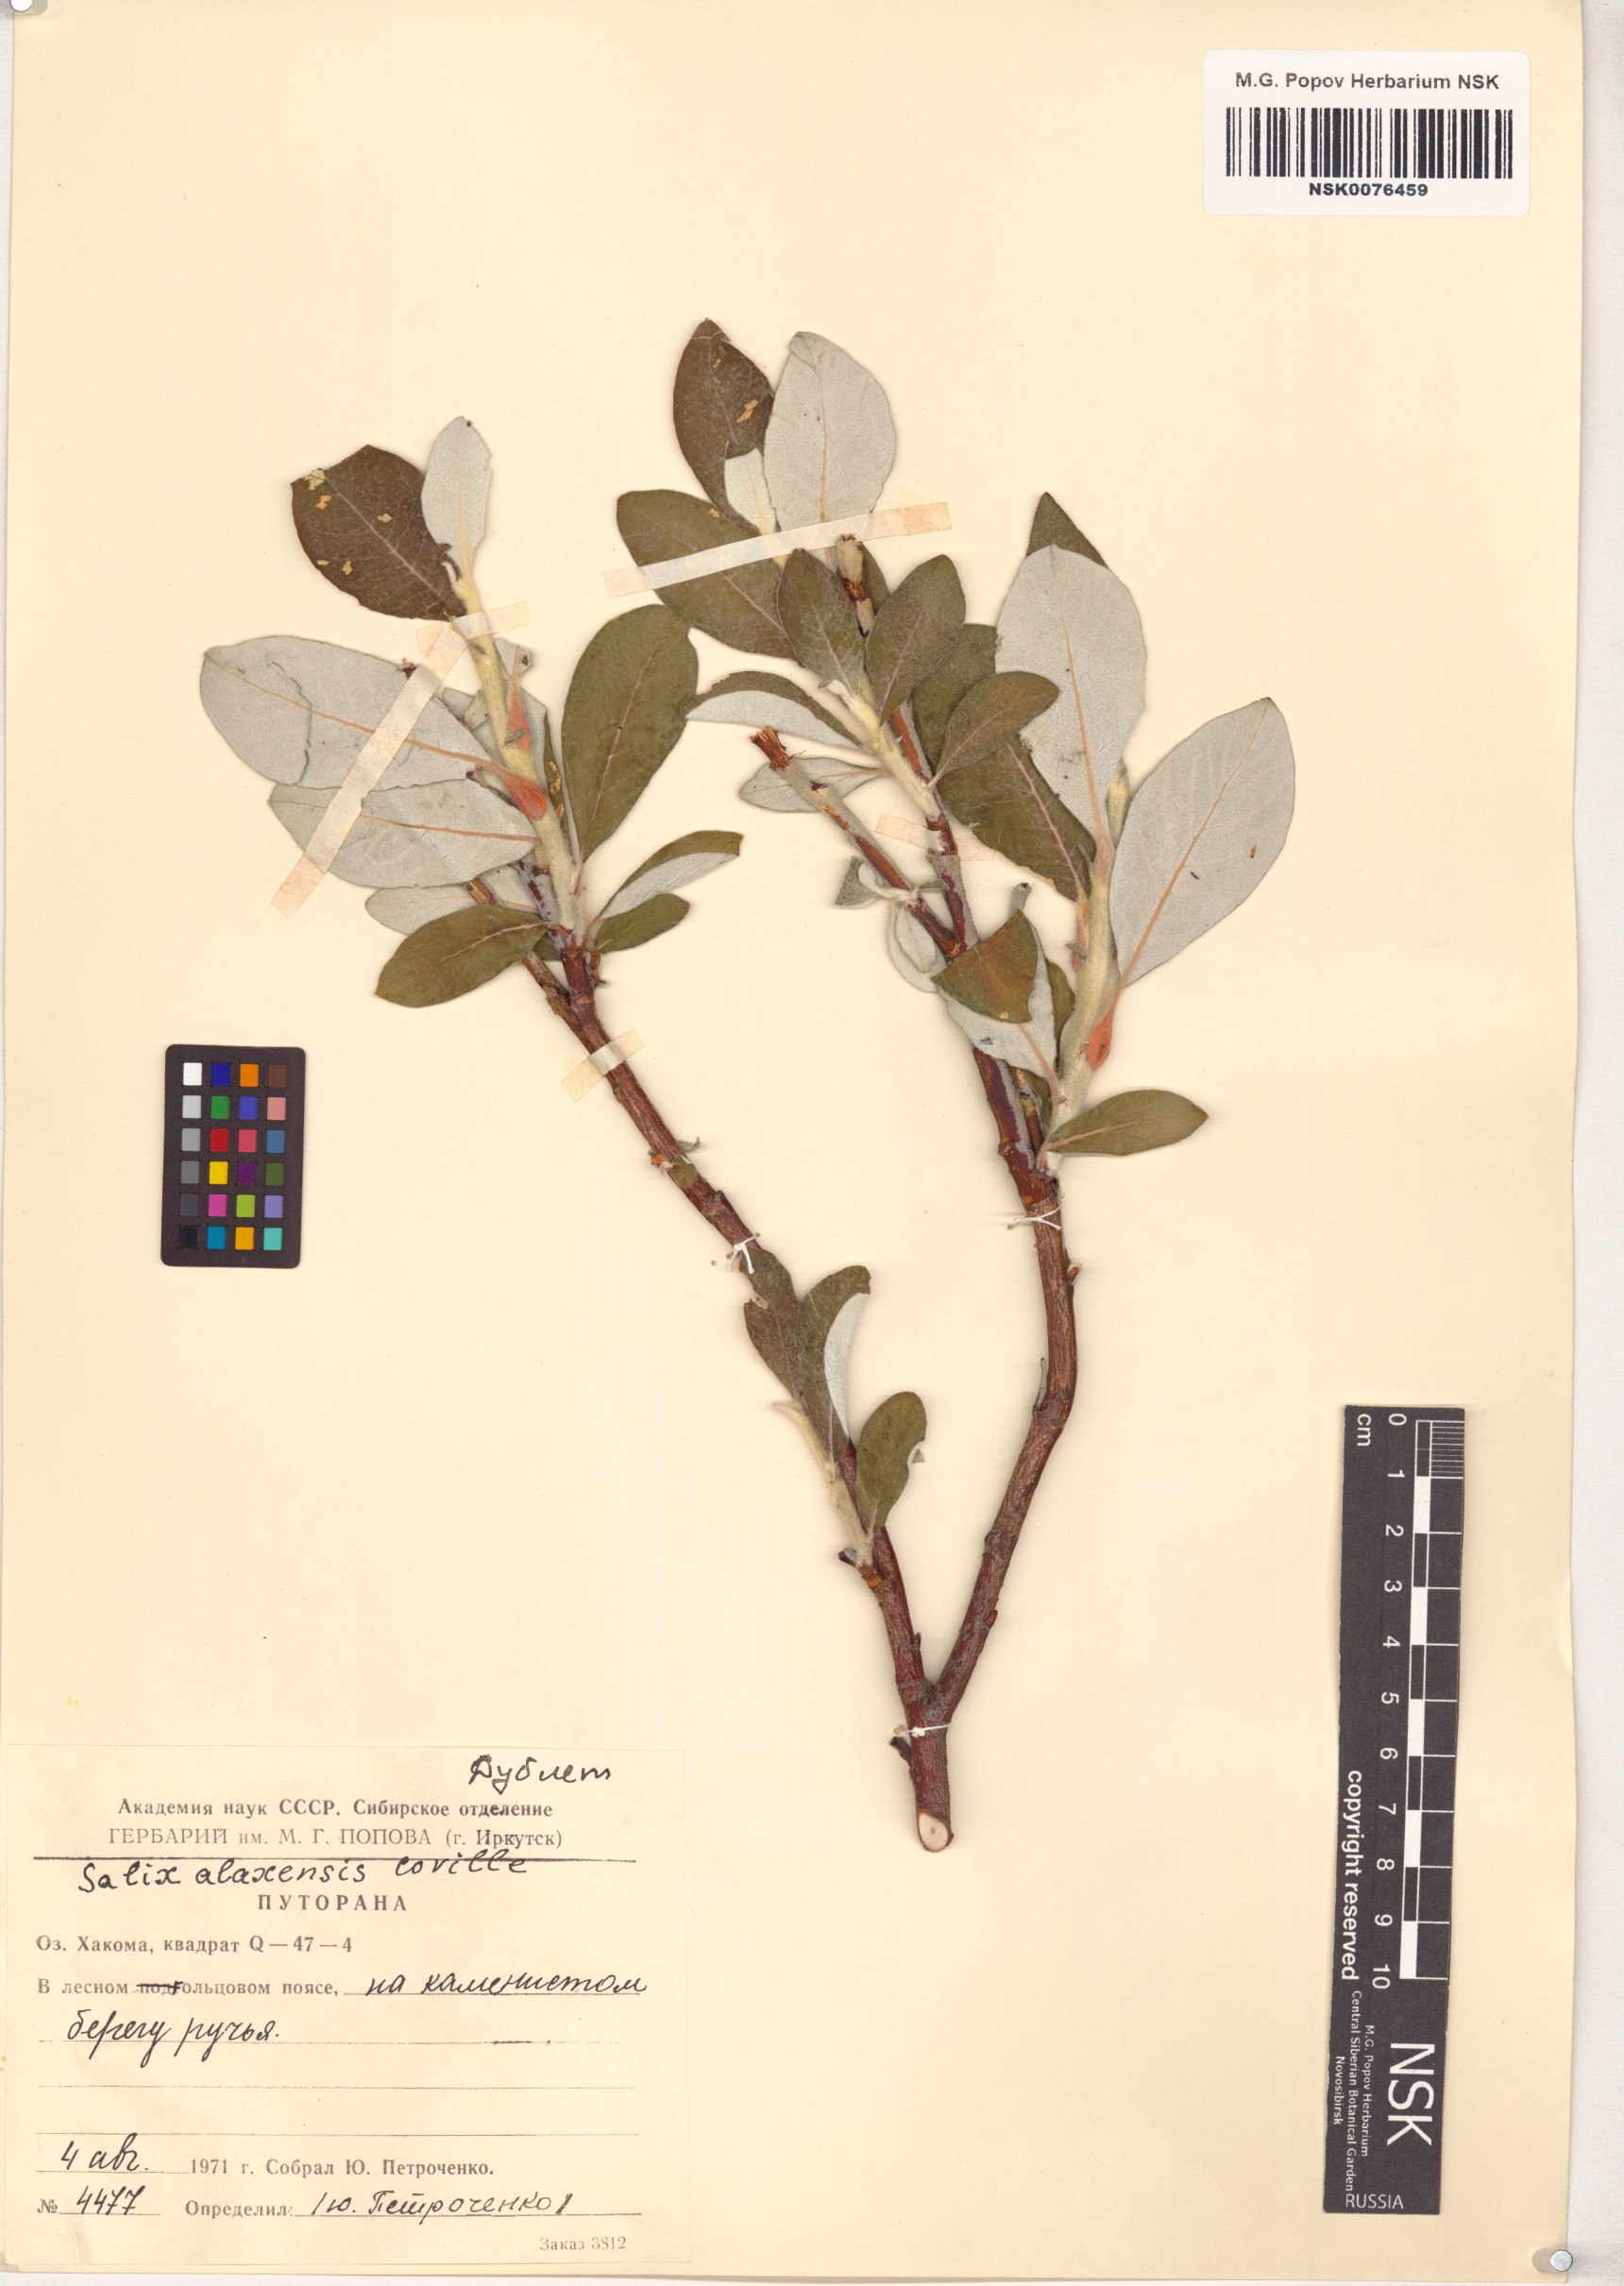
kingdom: Plantae
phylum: Tracheophyta
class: Magnoliopsida
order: Malpighiales
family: Salicaceae
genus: Salix
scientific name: Salix alaxensis
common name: Feltleaf willow
